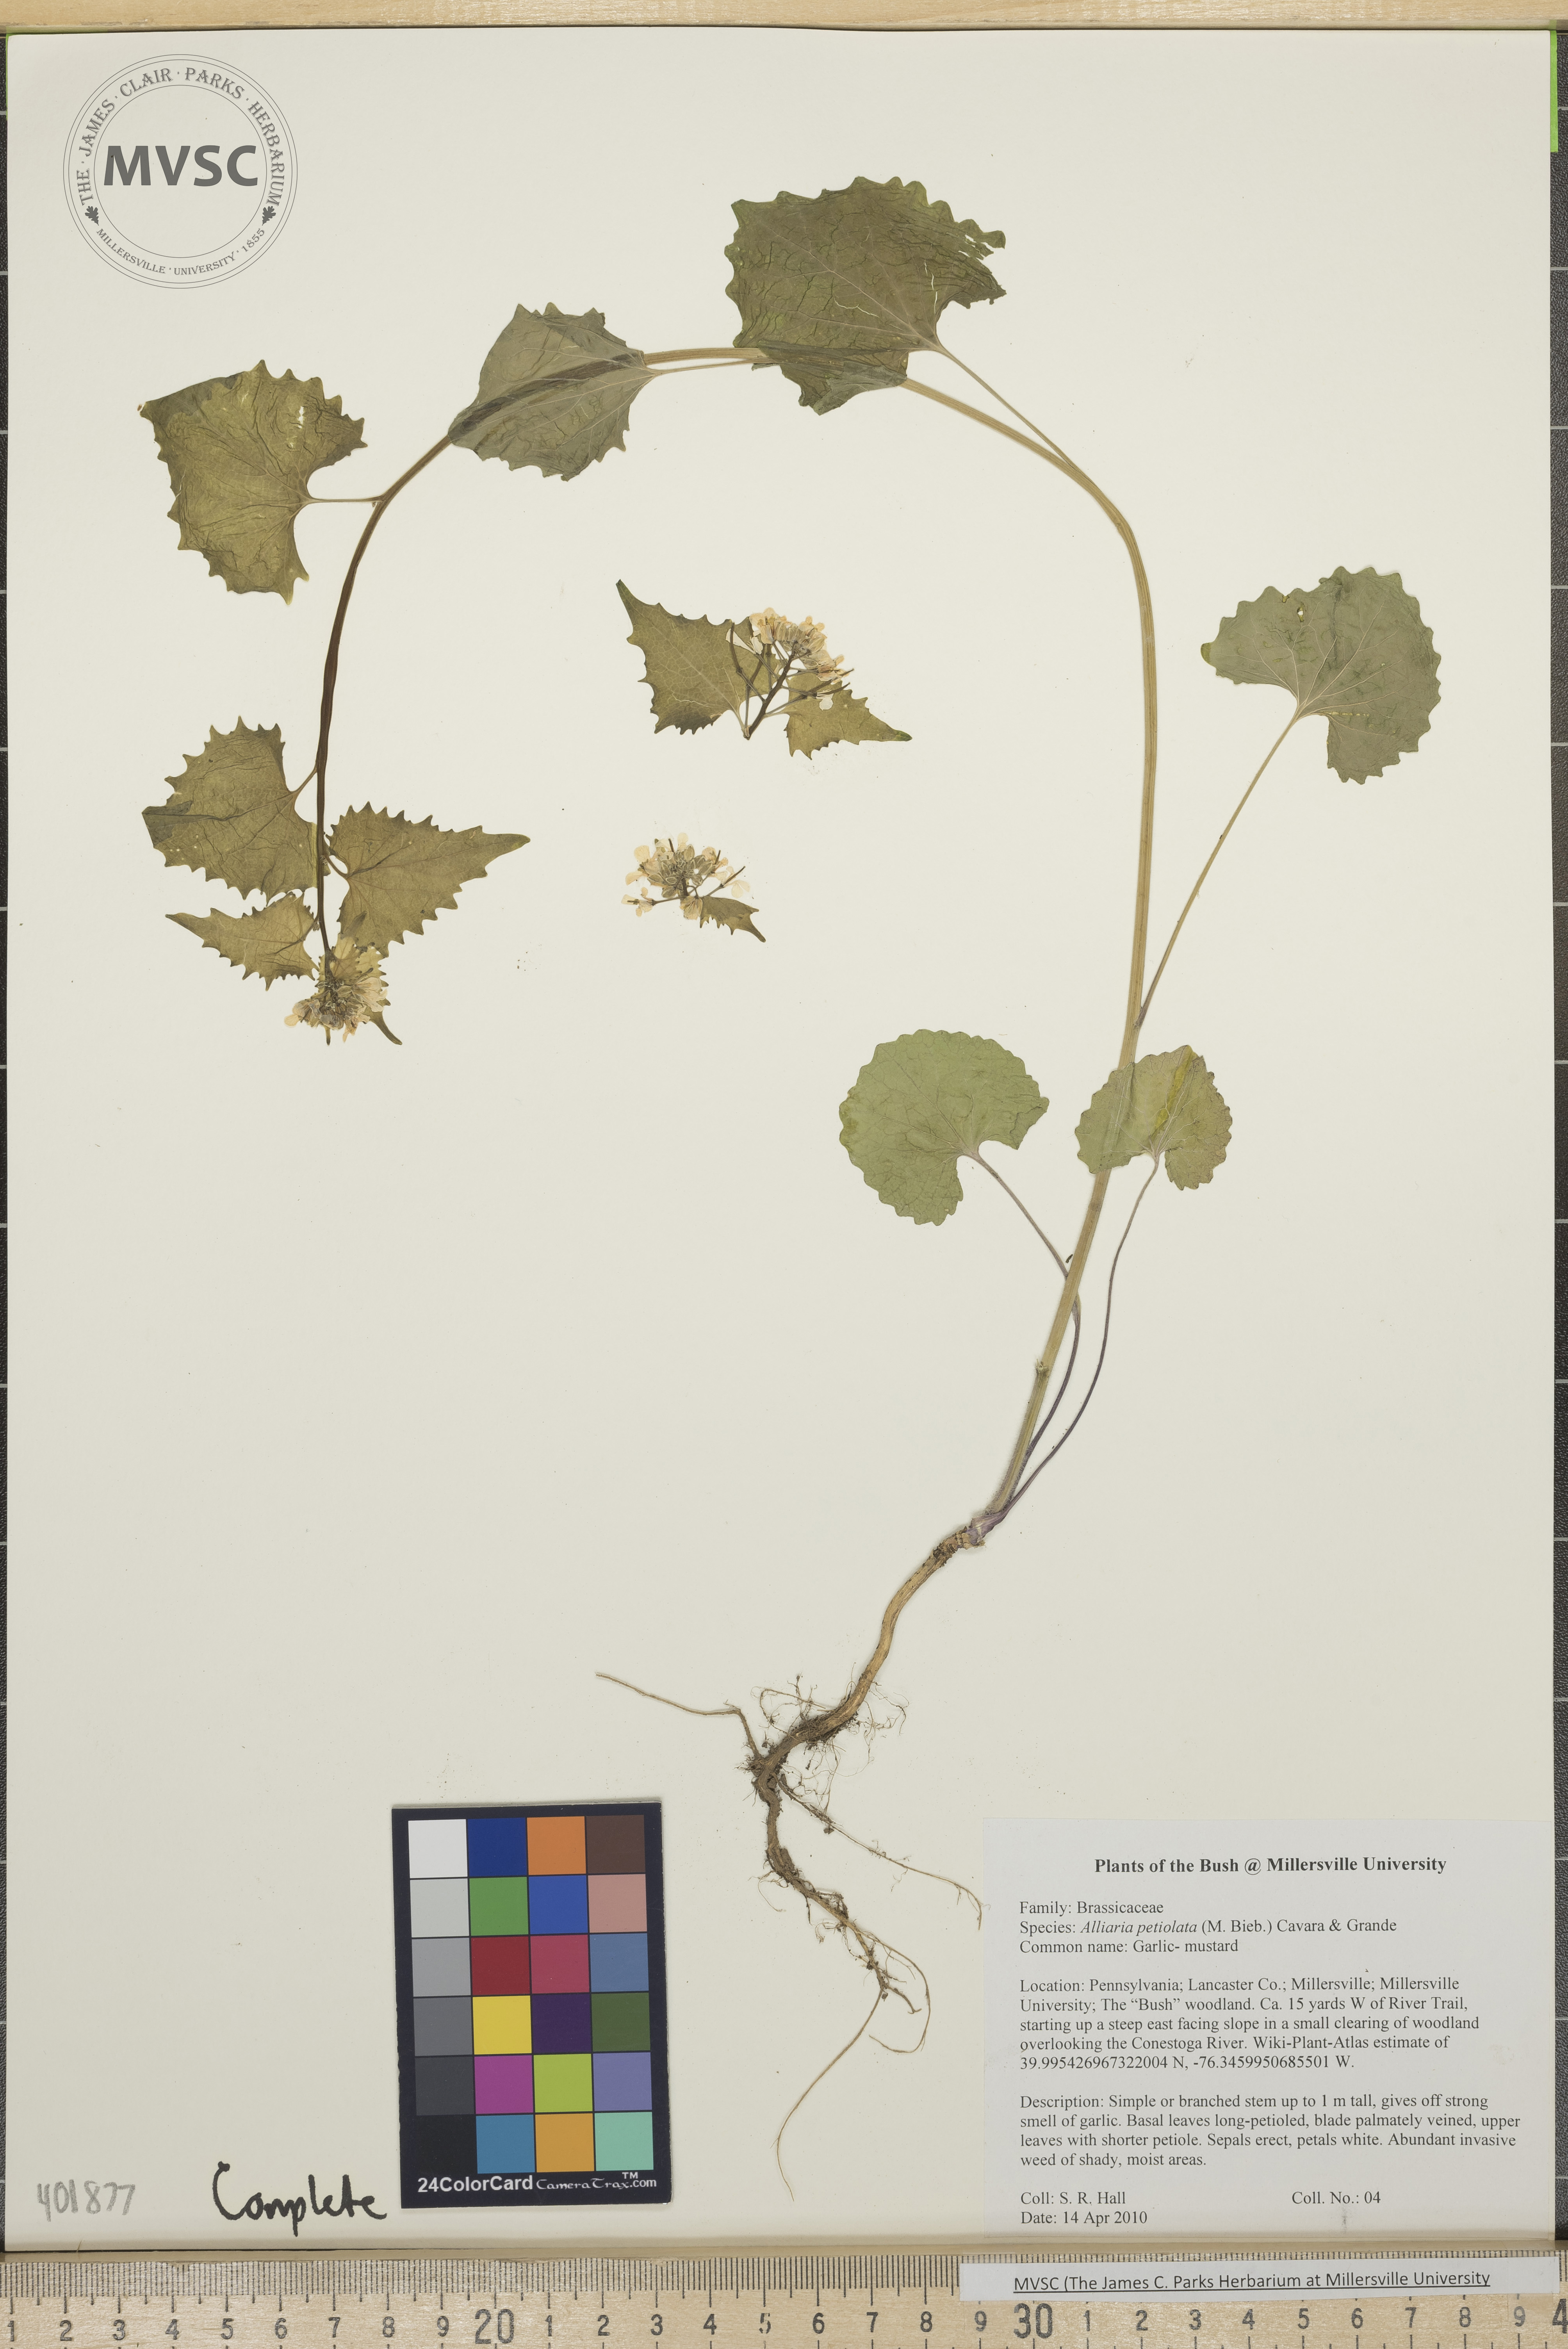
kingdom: Plantae
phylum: Tracheophyta
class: Magnoliopsida
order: Brassicales
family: Brassicaceae
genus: Alliaria
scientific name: Alliaria petiolata
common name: Garlic mustard
